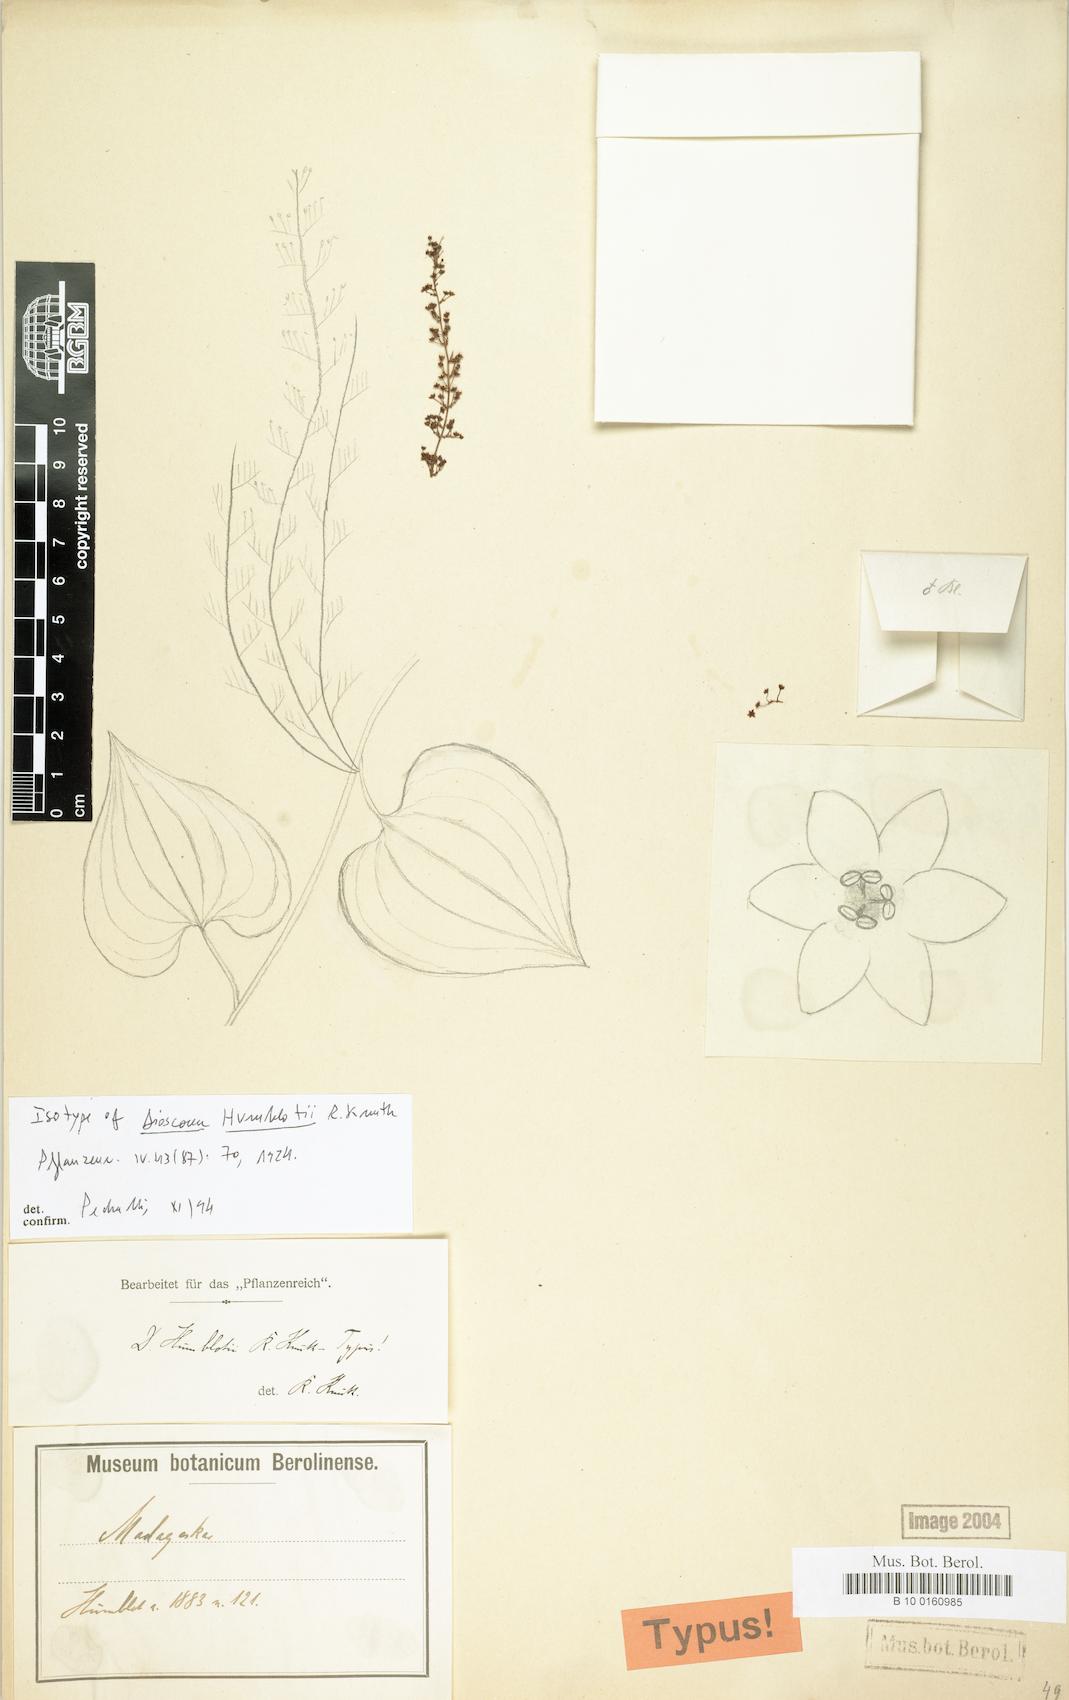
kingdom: Plantae
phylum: Tracheophyta
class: Liliopsida
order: Dioscoreales
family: Dioscoreaceae
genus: Dioscorea
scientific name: Dioscorea arcuatinervis
